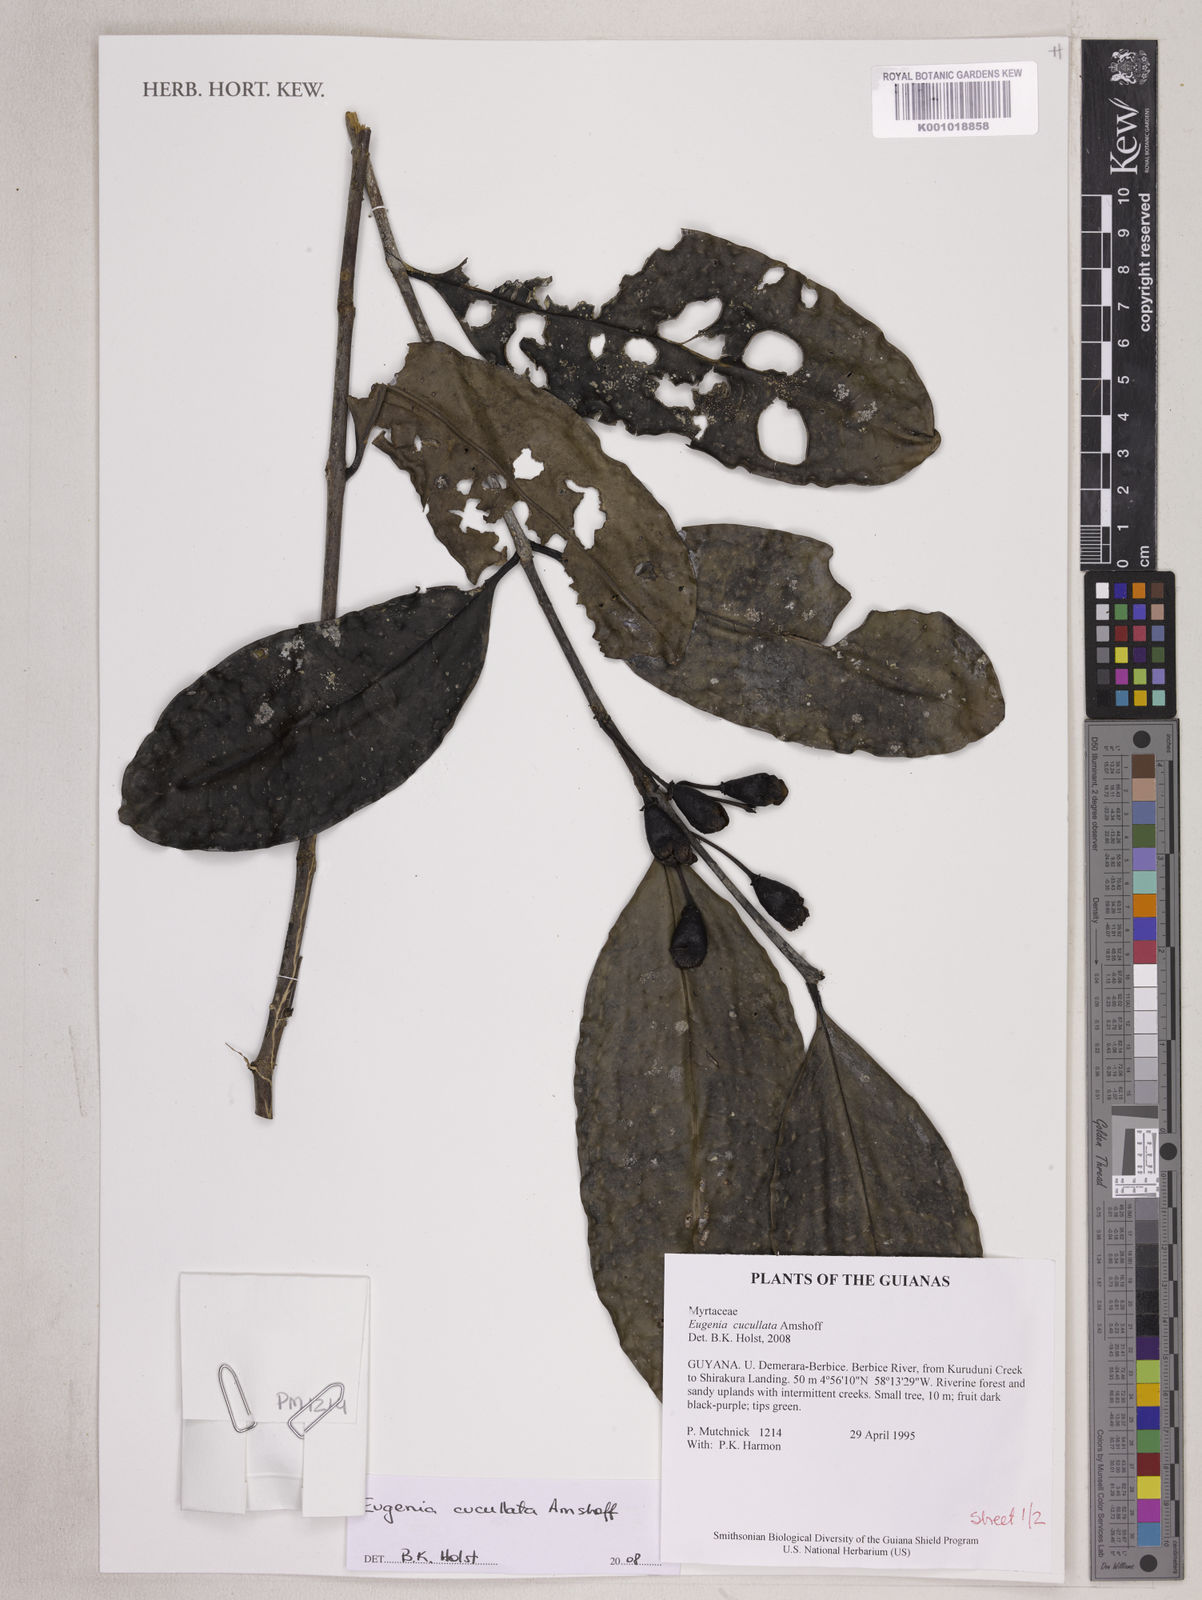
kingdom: Plantae
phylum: Tracheophyta
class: Magnoliopsida
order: Myrtales
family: Myrtaceae
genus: Eugenia
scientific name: Eugenia cucullata
